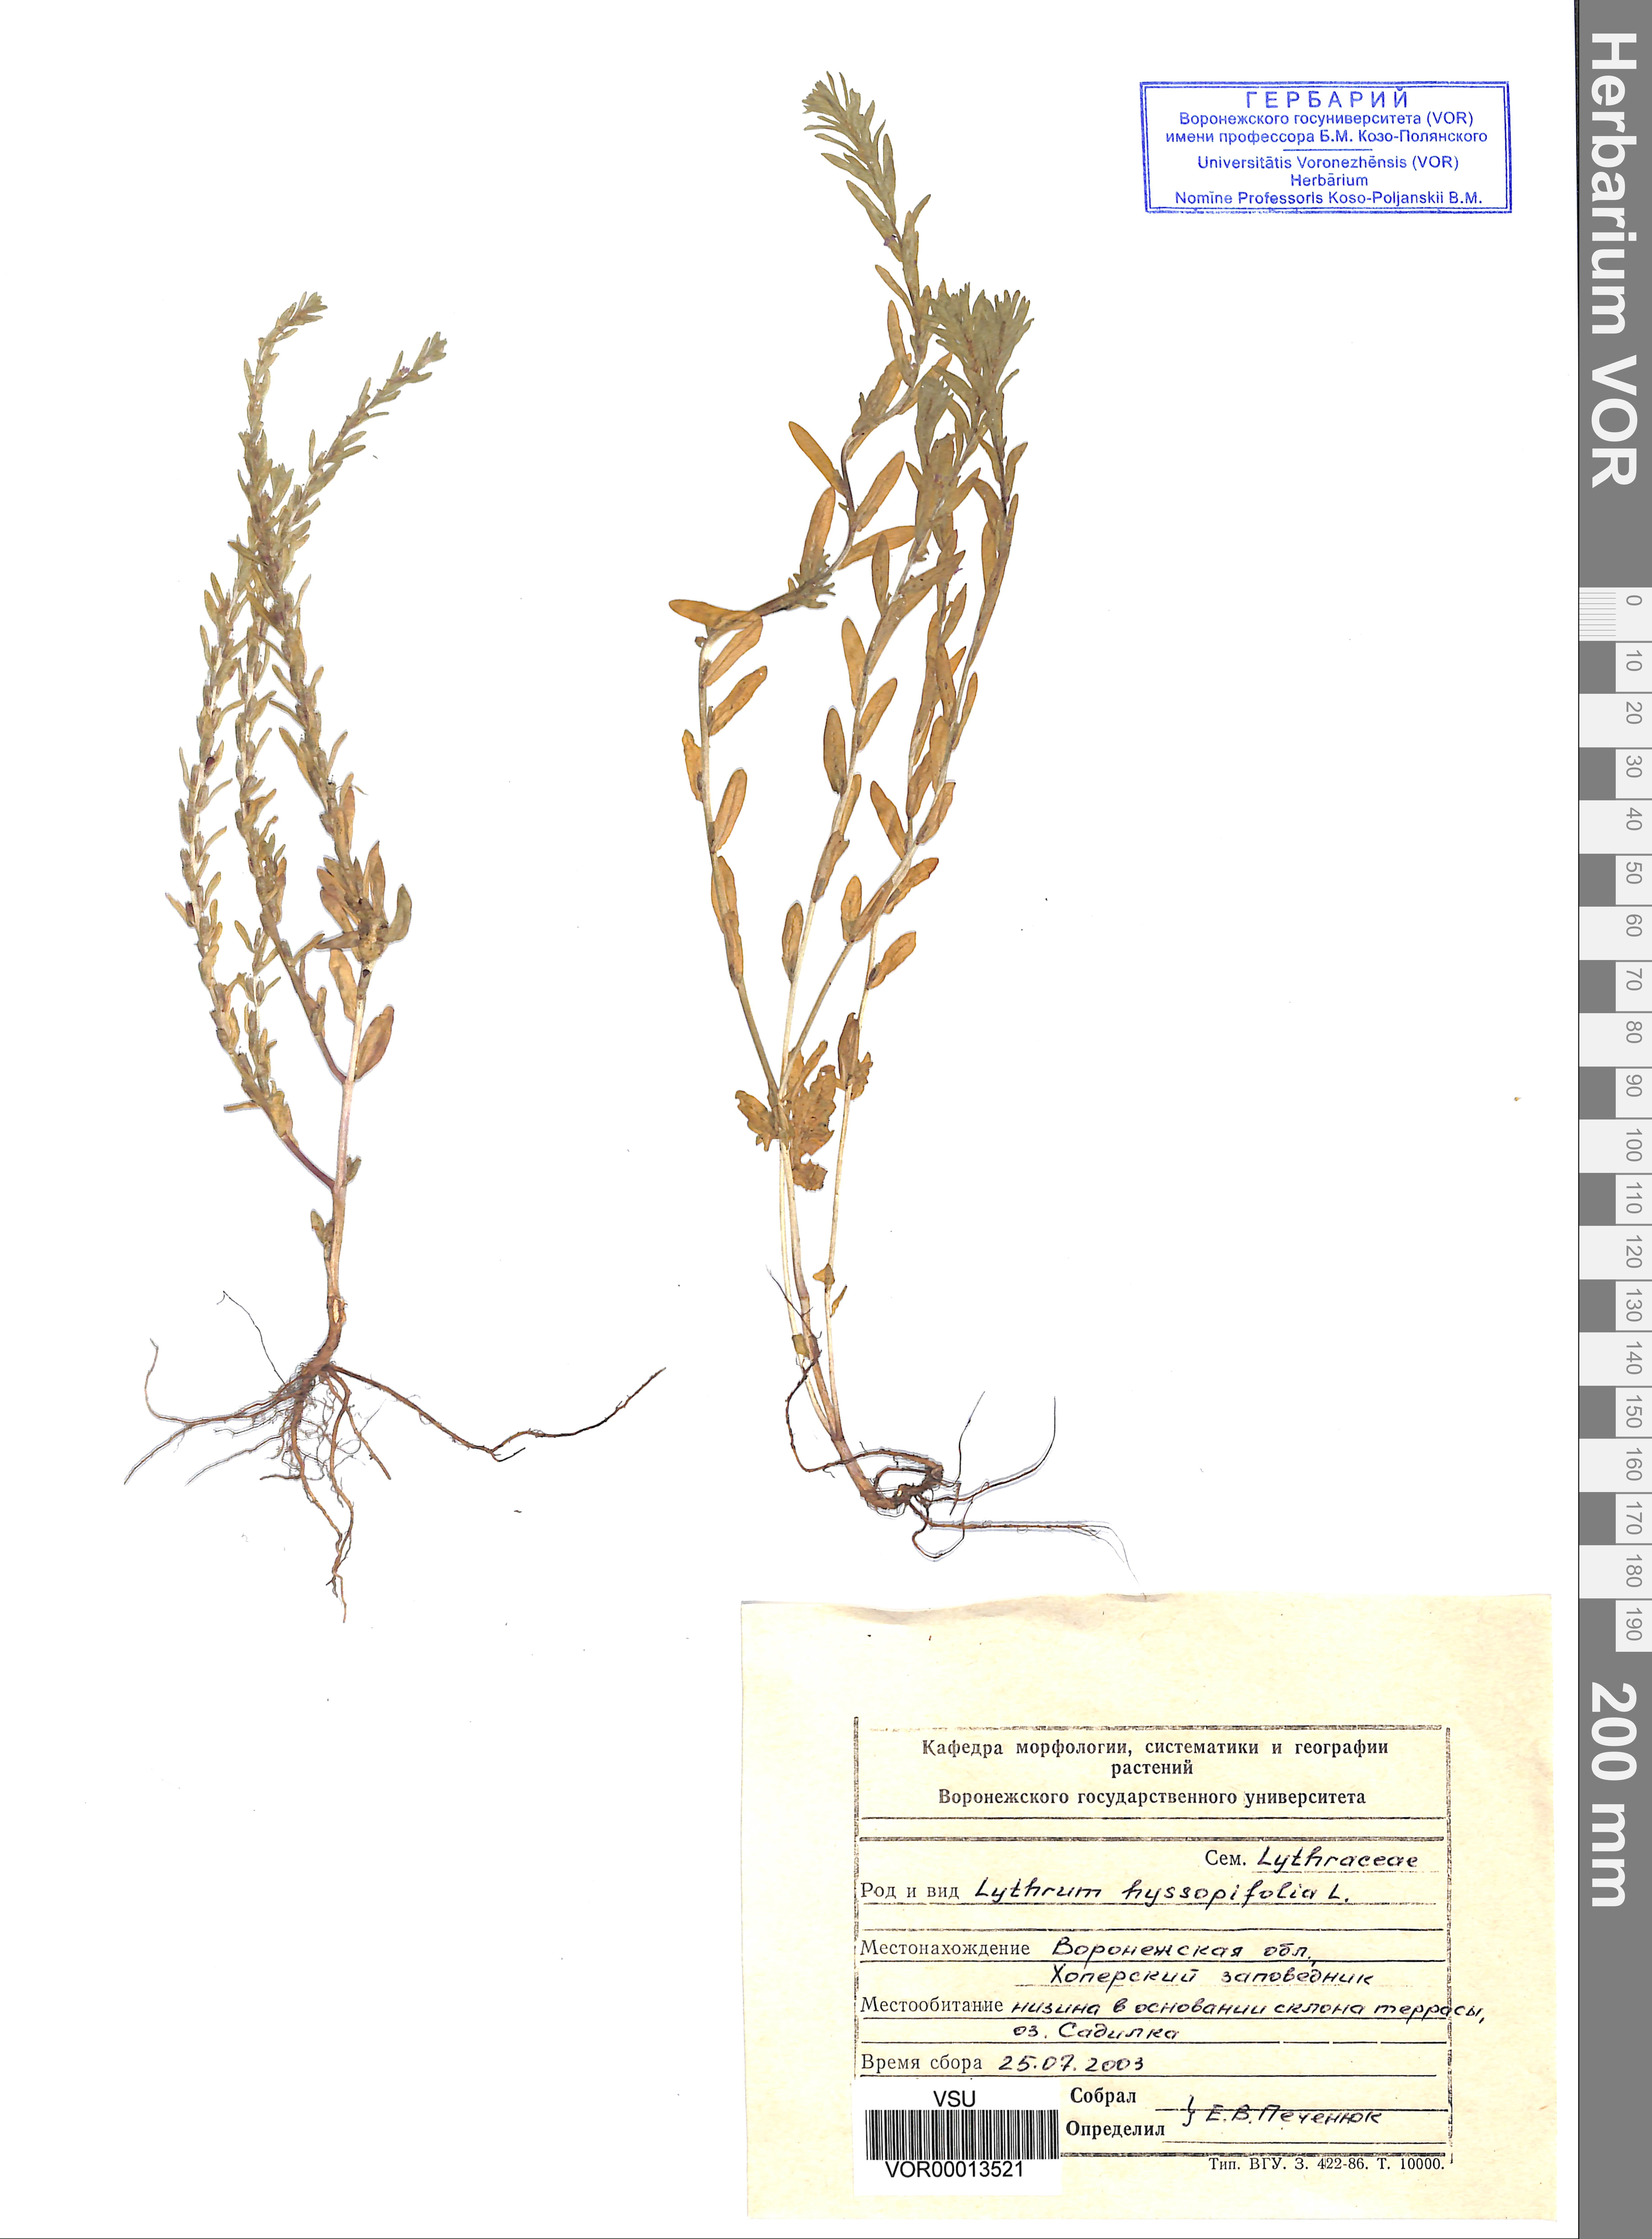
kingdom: Plantae
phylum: Tracheophyta
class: Magnoliopsida
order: Myrtales
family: Lythraceae
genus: Lythrum
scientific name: Lythrum hyssopifolia
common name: Grass-poly
